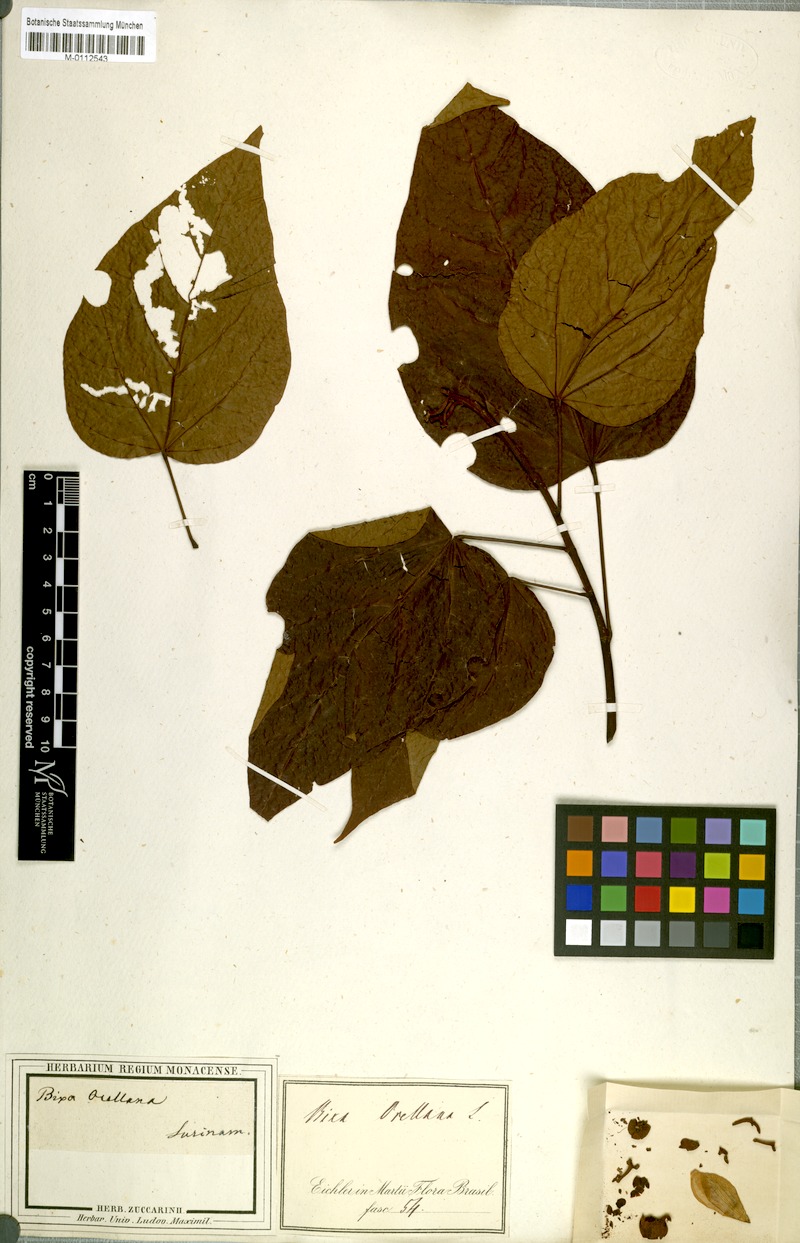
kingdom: Plantae
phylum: Tracheophyta
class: Magnoliopsida
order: Malvales
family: Bixaceae
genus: Bixa
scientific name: Bixa orellana
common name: Lipsticktree
